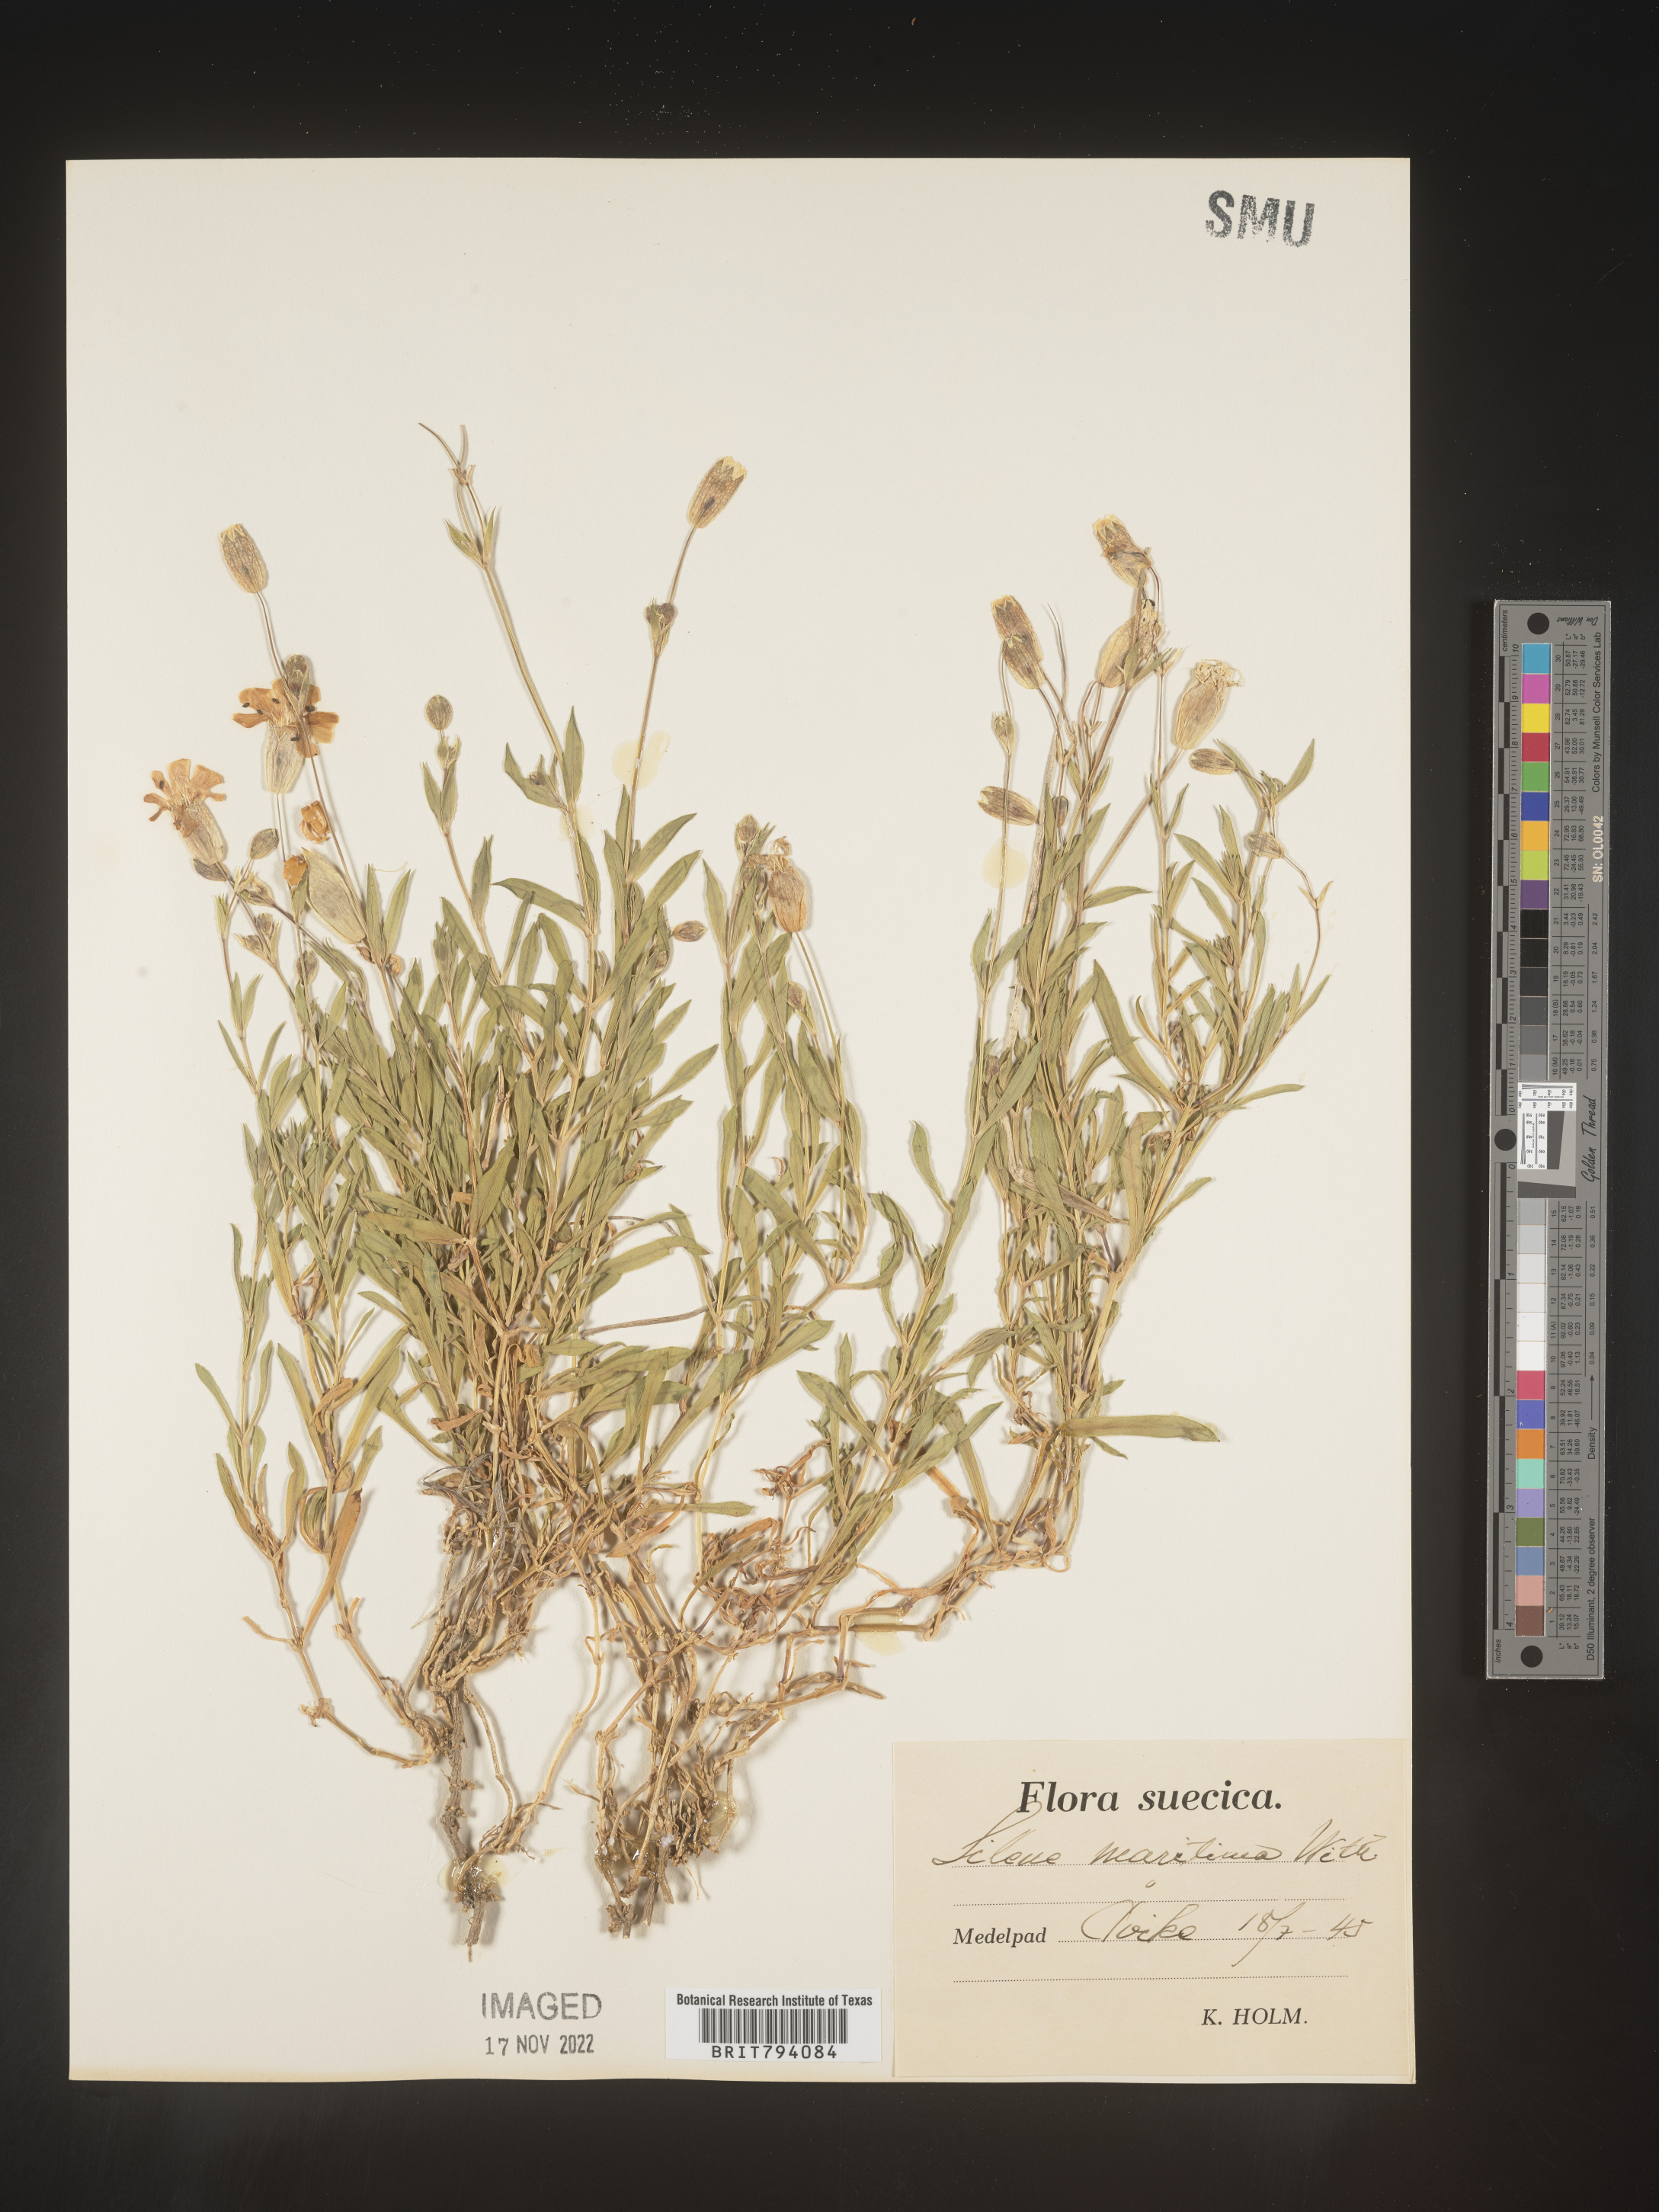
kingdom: Plantae
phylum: Tracheophyta
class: Magnoliopsida
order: Caryophyllales
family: Caryophyllaceae
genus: Silene
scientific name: Silene uniflora
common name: Sea campion
